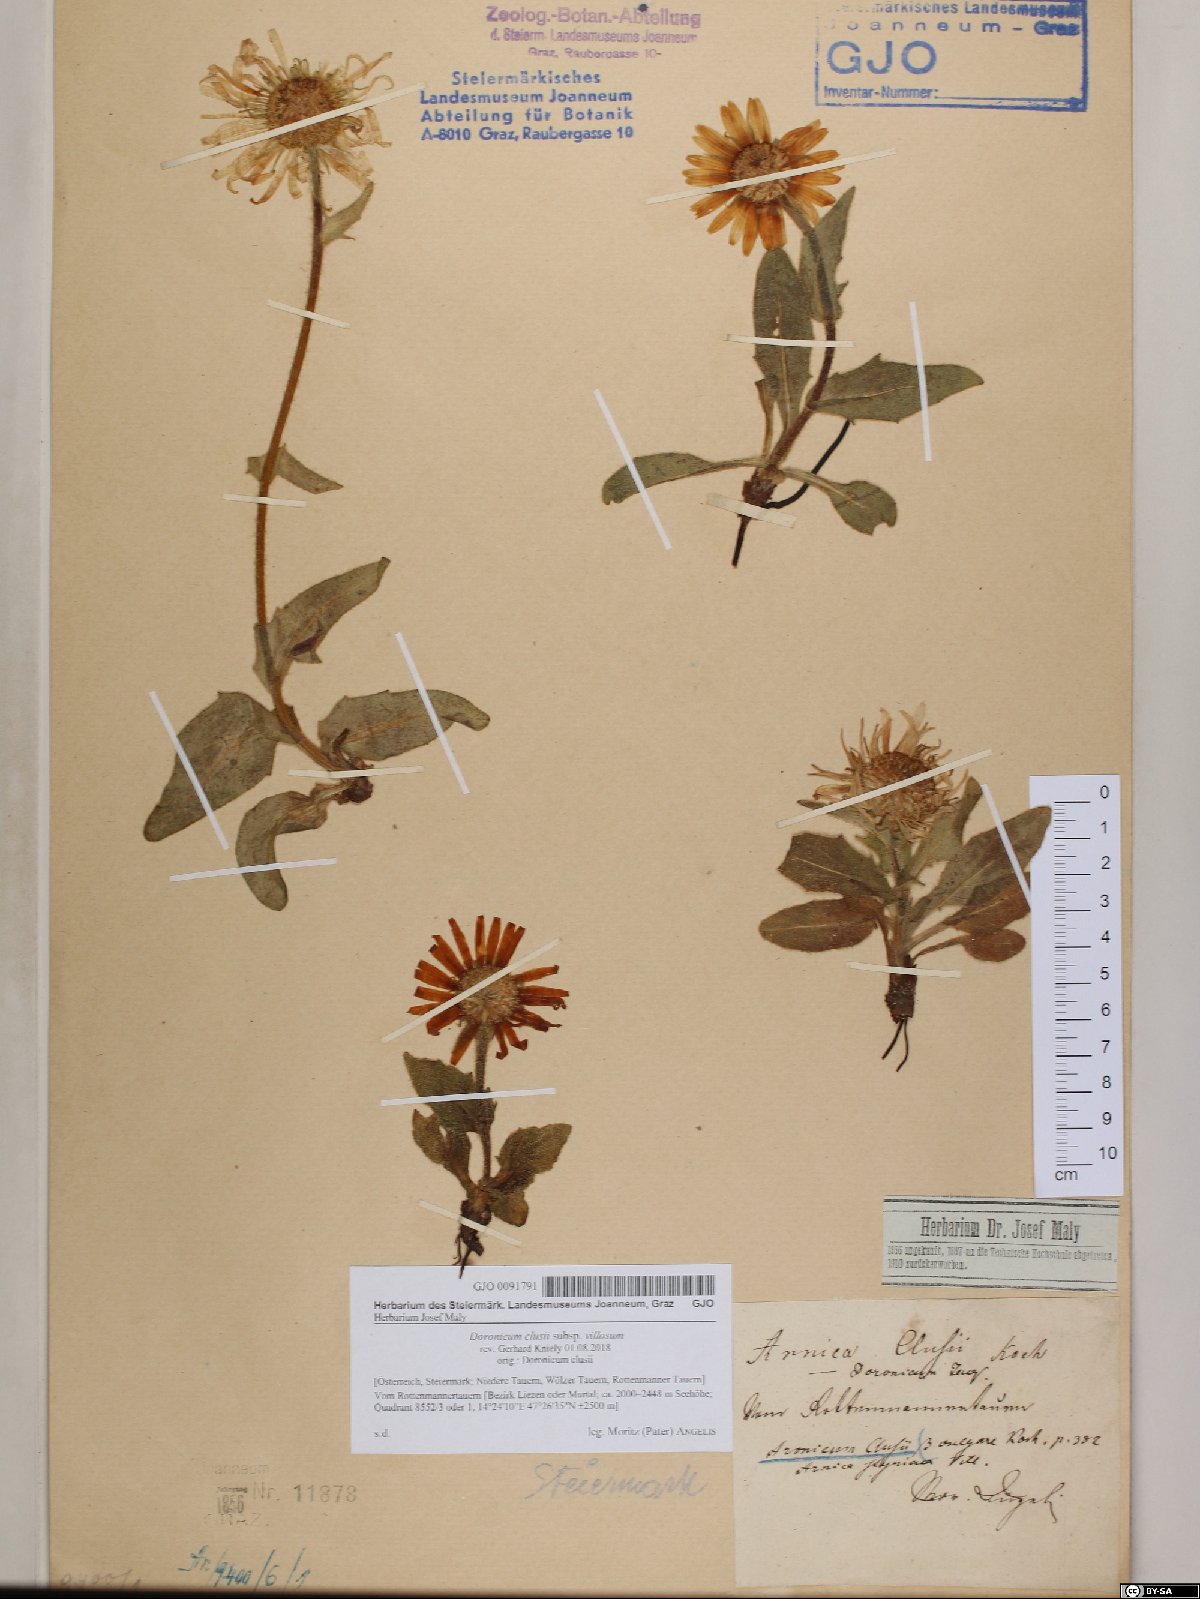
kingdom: Plantae
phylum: Tracheophyta
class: Magnoliopsida
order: Asterales
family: Asteraceae
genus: Doronicum
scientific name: Doronicum clusii
